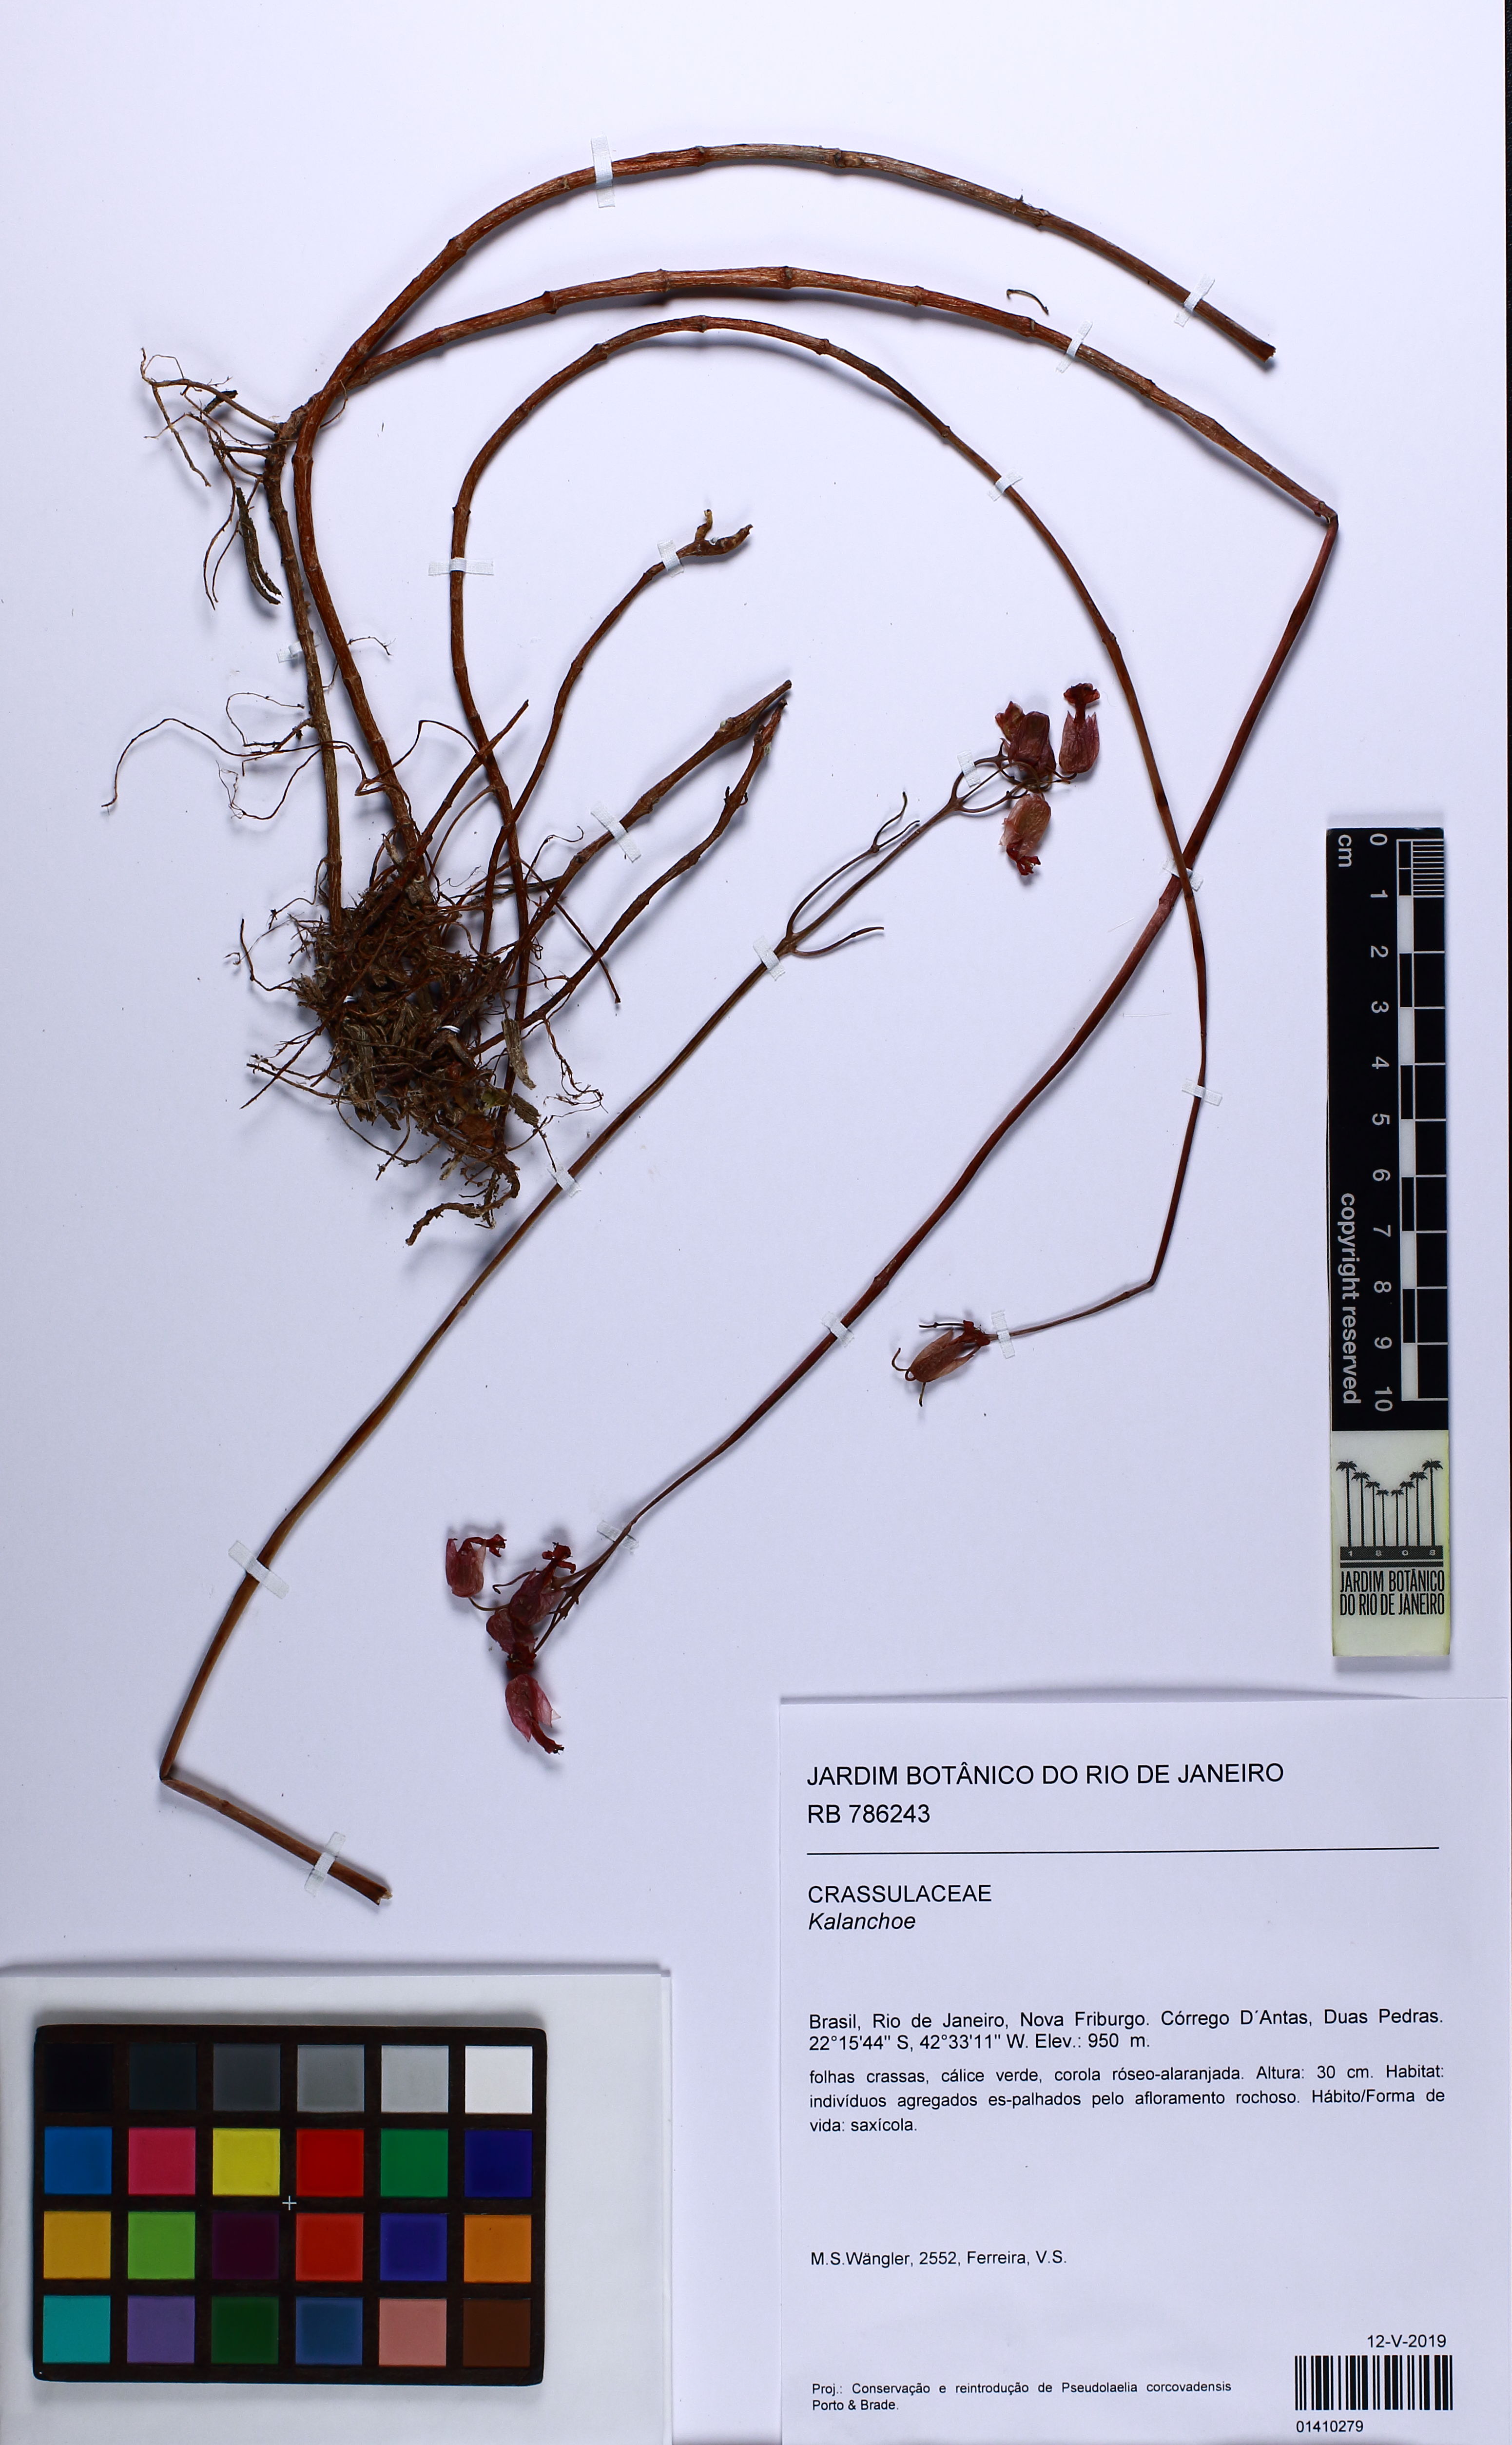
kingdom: Plantae
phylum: Tracheophyta
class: Magnoliopsida
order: Saxifragales
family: Crassulaceae
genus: Kalanchoe
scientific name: Kalanchoe
